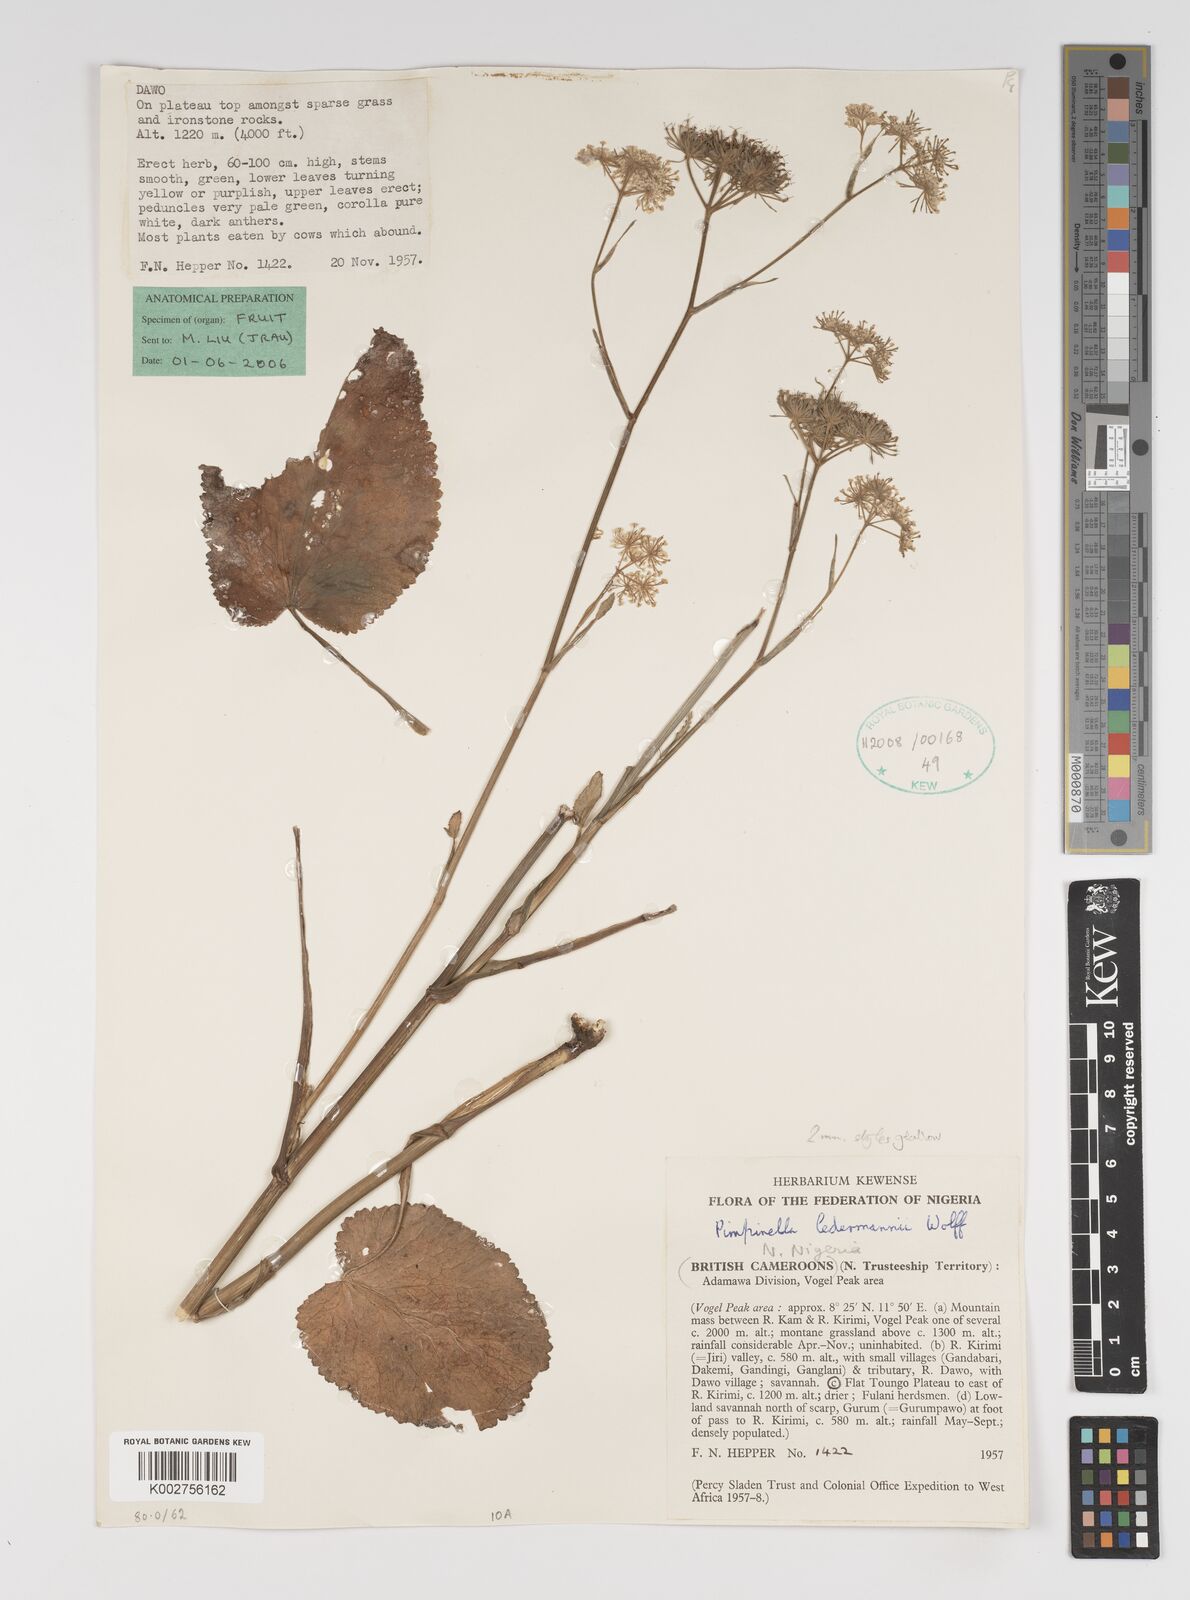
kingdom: Plantae
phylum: Tracheophyta
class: Magnoliopsida
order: Apiales
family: Apiaceae
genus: Pimpinella
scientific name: Pimpinella ledermannii
